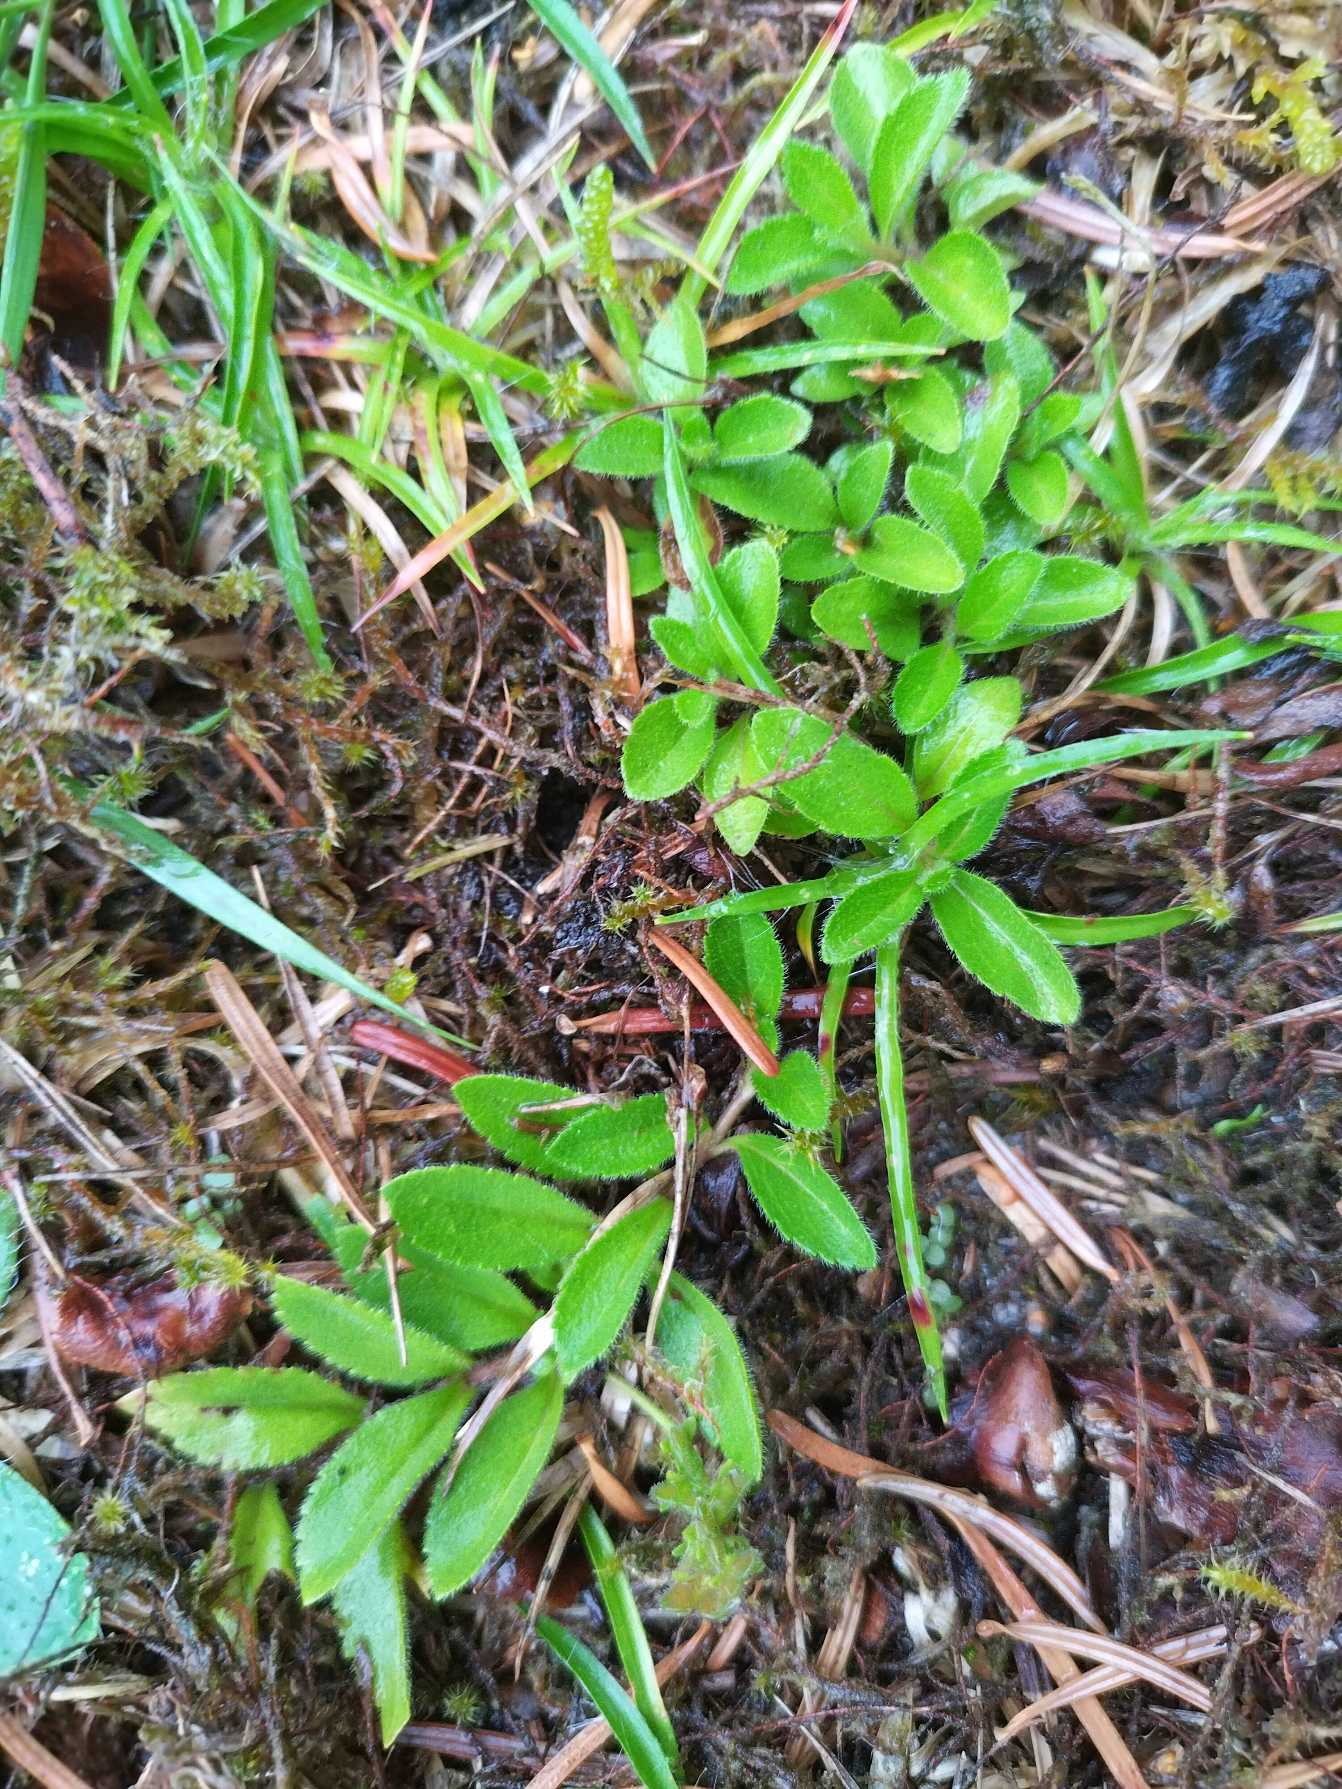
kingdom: Plantae
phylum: Tracheophyta
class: Magnoliopsida
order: Lamiales
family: Plantaginaceae
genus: Veronica
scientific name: Veronica officinalis
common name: Læge-ærenpris
